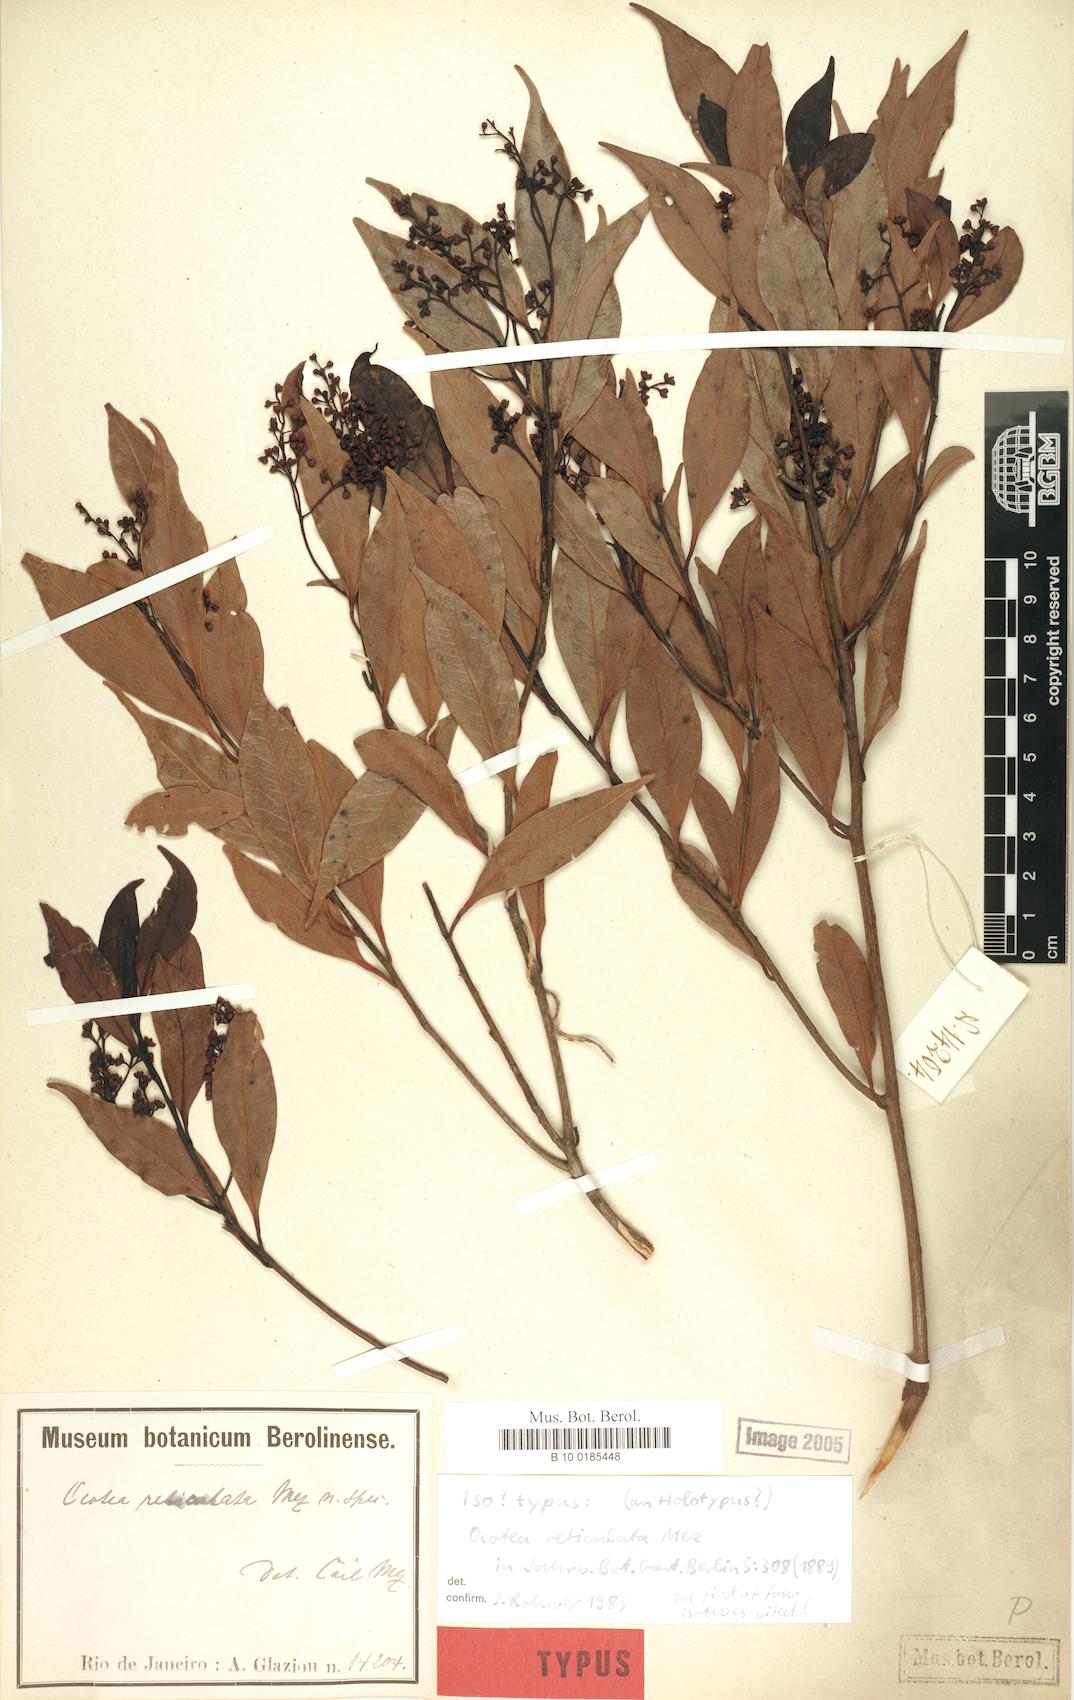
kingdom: Plantae
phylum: Tracheophyta
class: Magnoliopsida
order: Laurales
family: Lauraceae
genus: Mespilodaphne
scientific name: Mespilodaphne corymbosa
